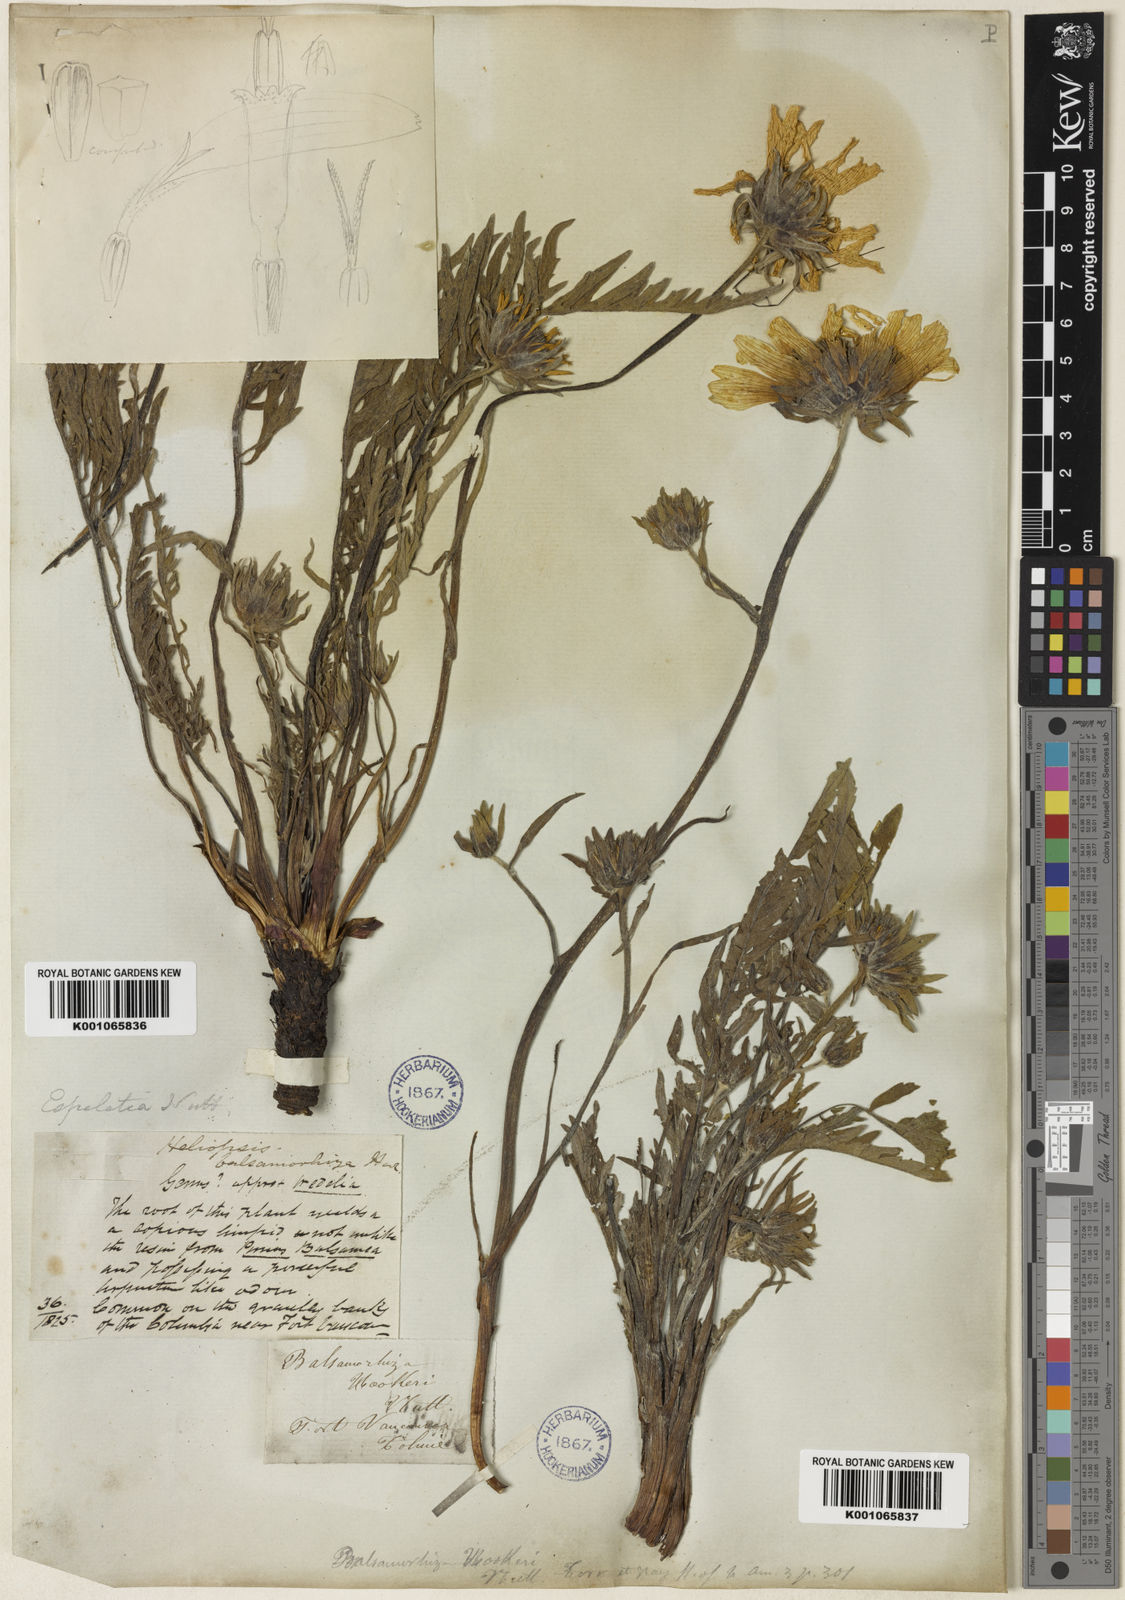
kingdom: Plantae
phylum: Tracheophyta
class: Magnoliopsida
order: Asterales
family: Asteraceae
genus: Balsamorhiza
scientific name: Balsamorhiza hookeri
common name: Hooker's balsamroot
